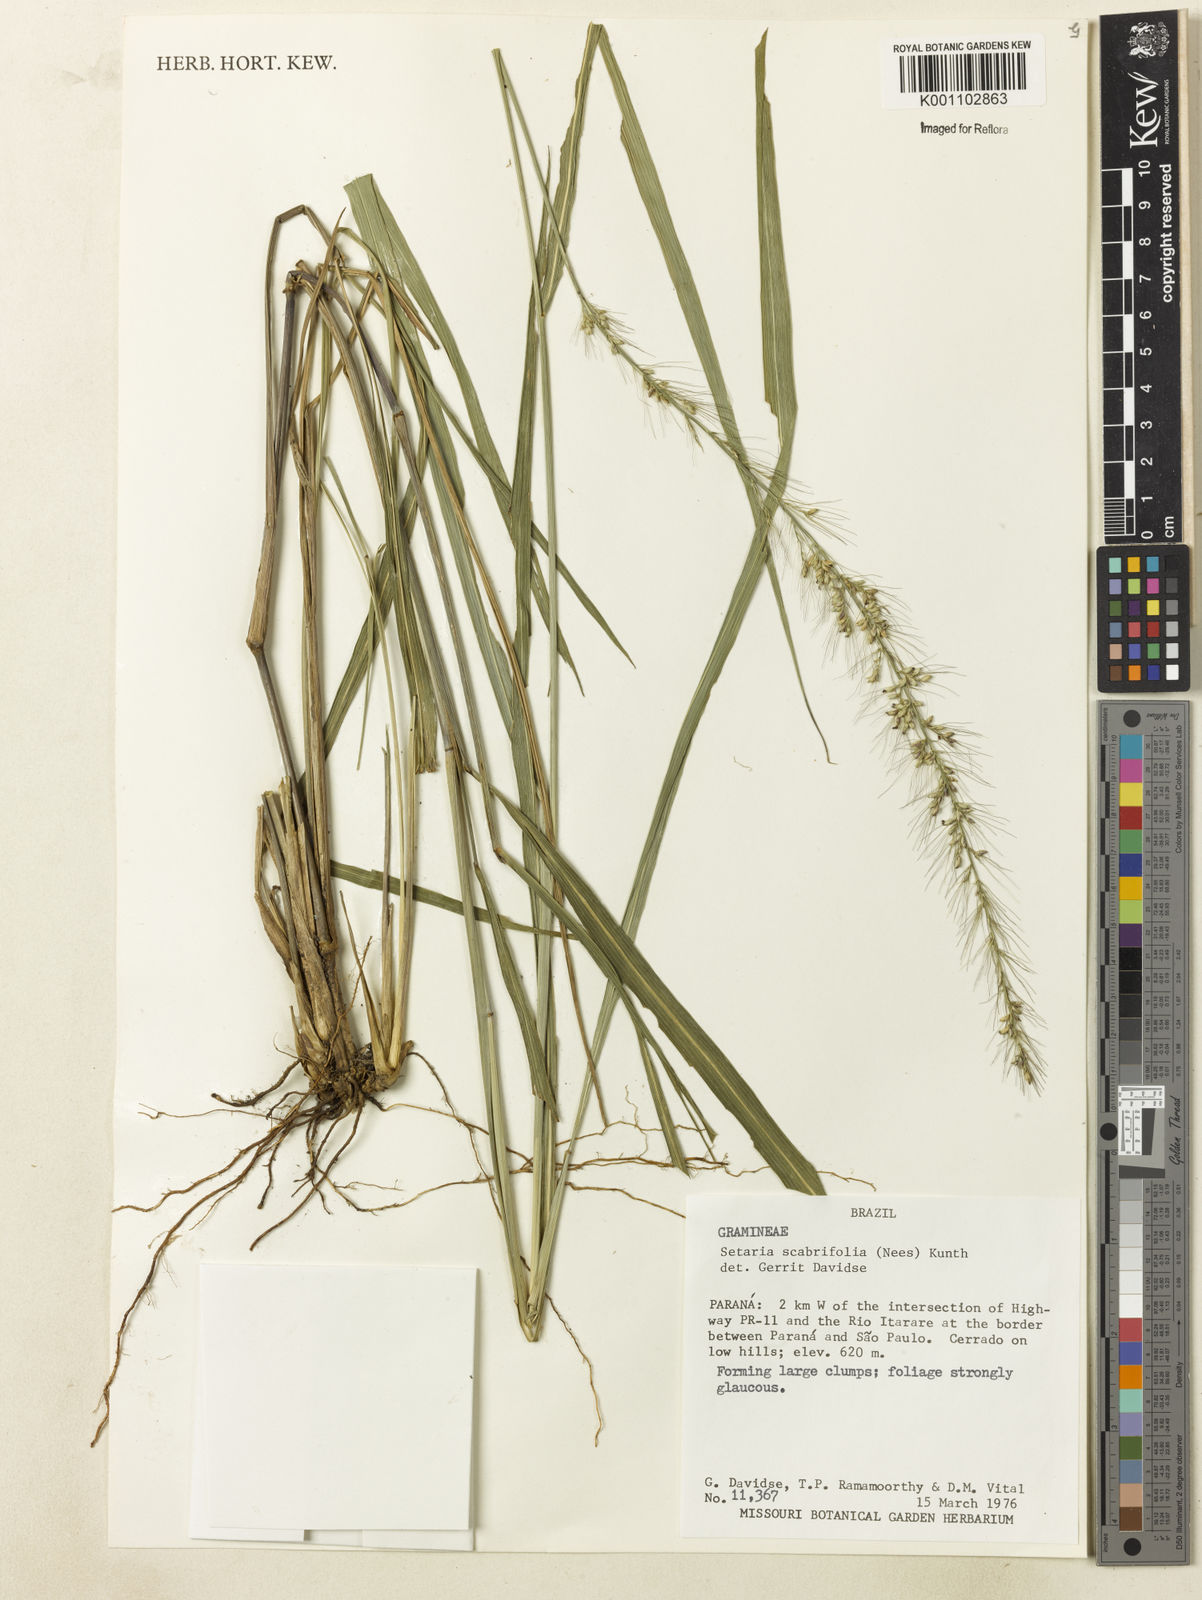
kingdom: Plantae
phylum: Tracheophyta
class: Liliopsida
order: Poales
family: Poaceae
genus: Setaria
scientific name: Setaria scabrifolia
